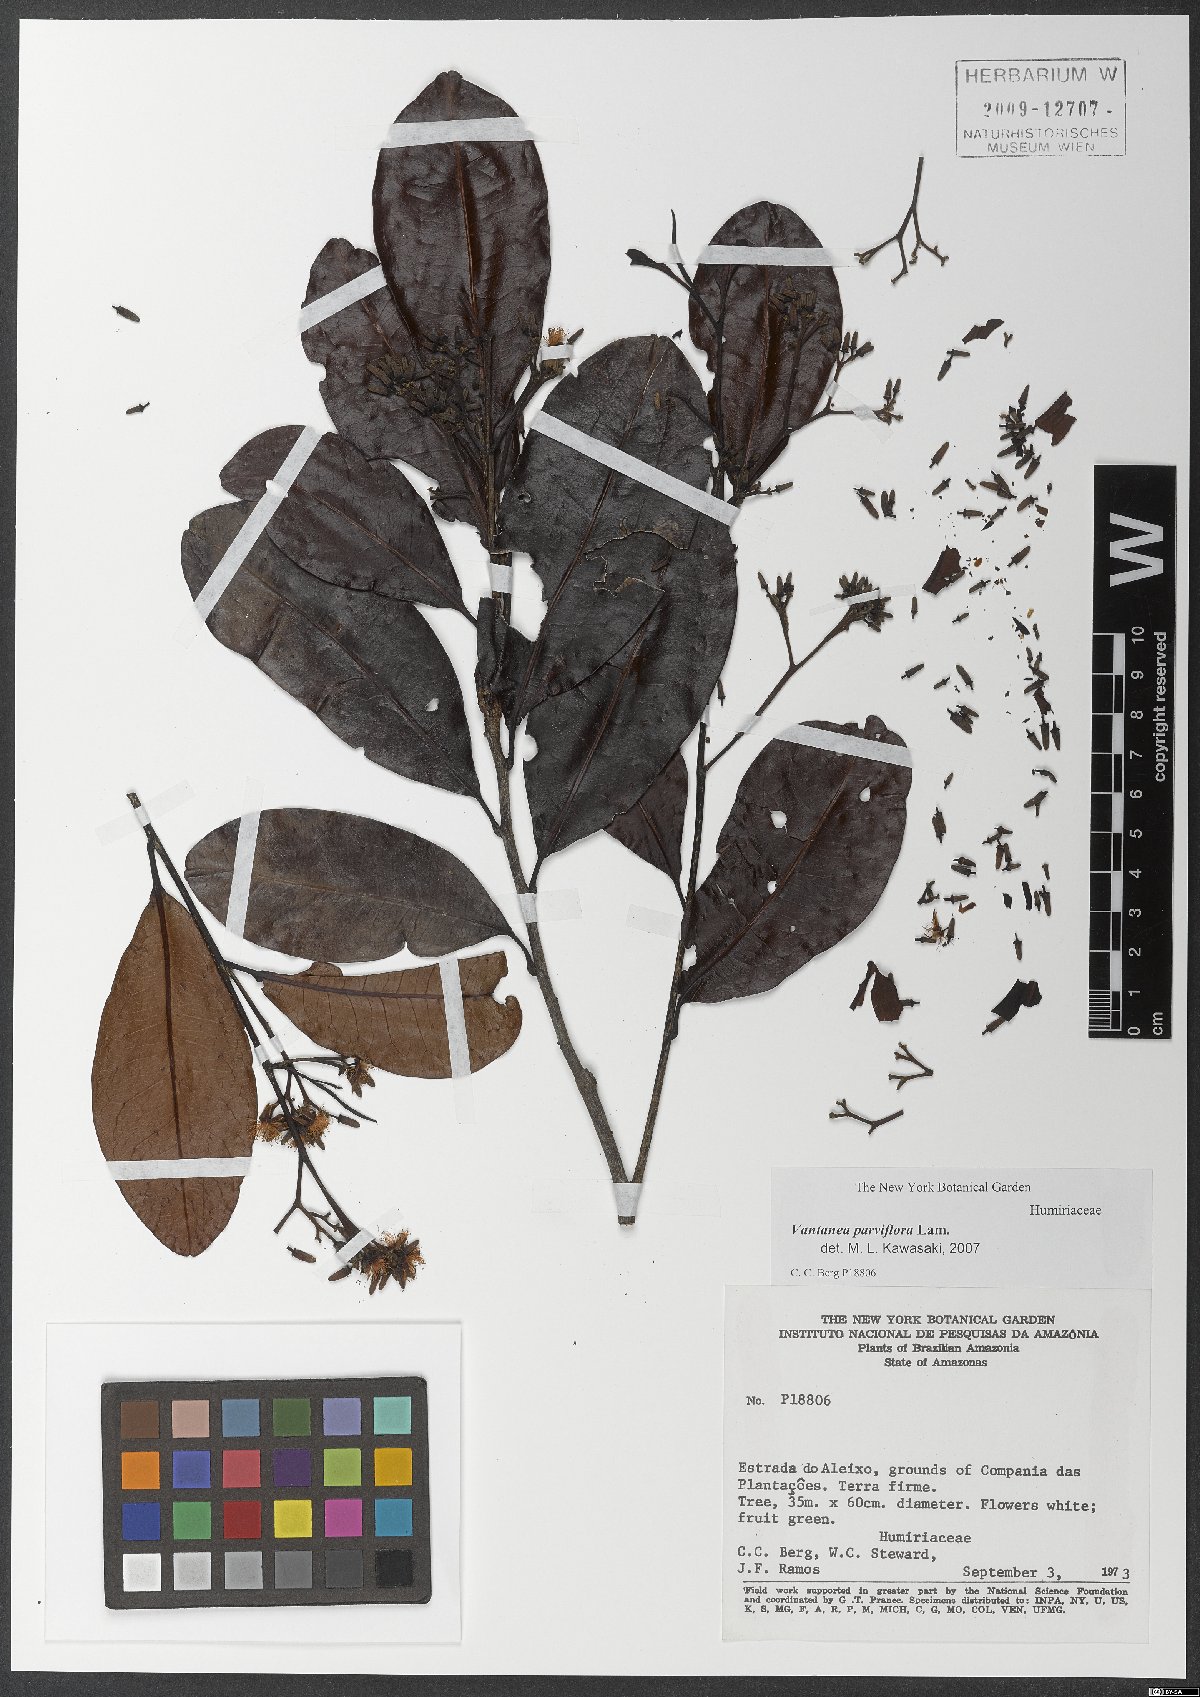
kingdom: Plantae
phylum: Tracheophyta
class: Magnoliopsida
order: Malpighiales
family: Humiriaceae
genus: Vantanea
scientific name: Vantanea parviflora
